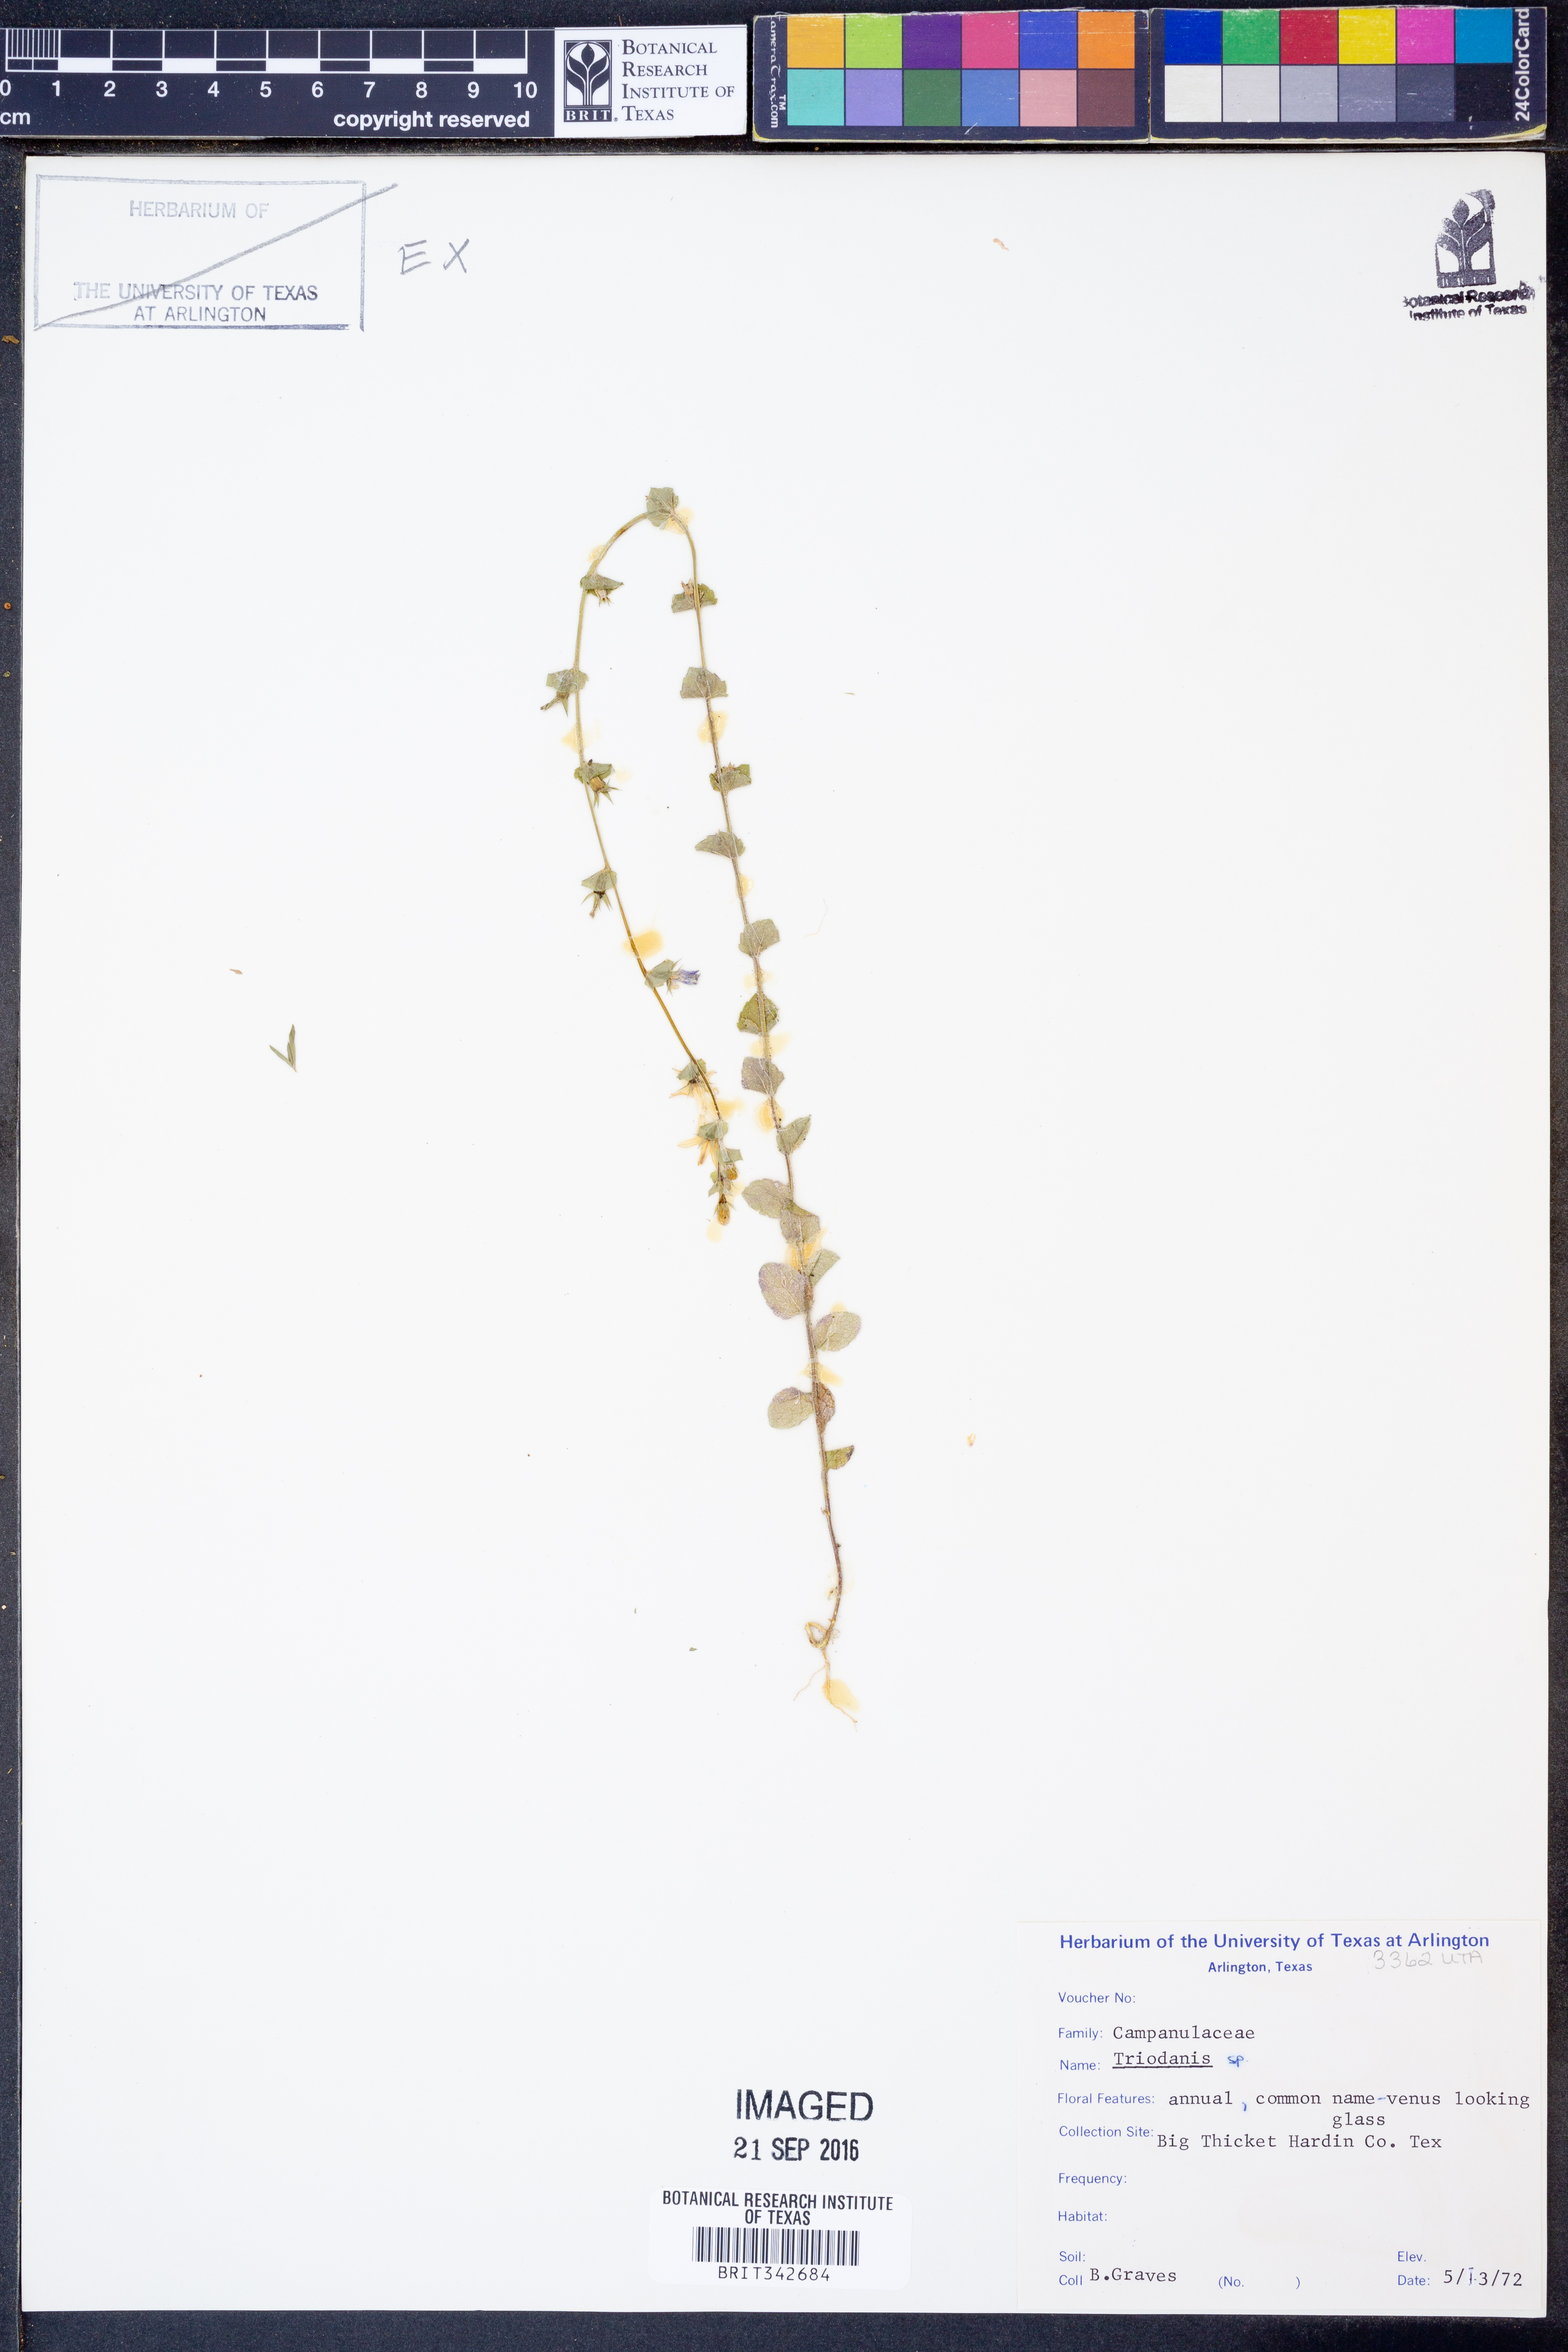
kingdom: Plantae
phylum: Tracheophyta
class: Magnoliopsida
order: Asterales
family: Campanulaceae
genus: Triodanis
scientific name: Triodanis
